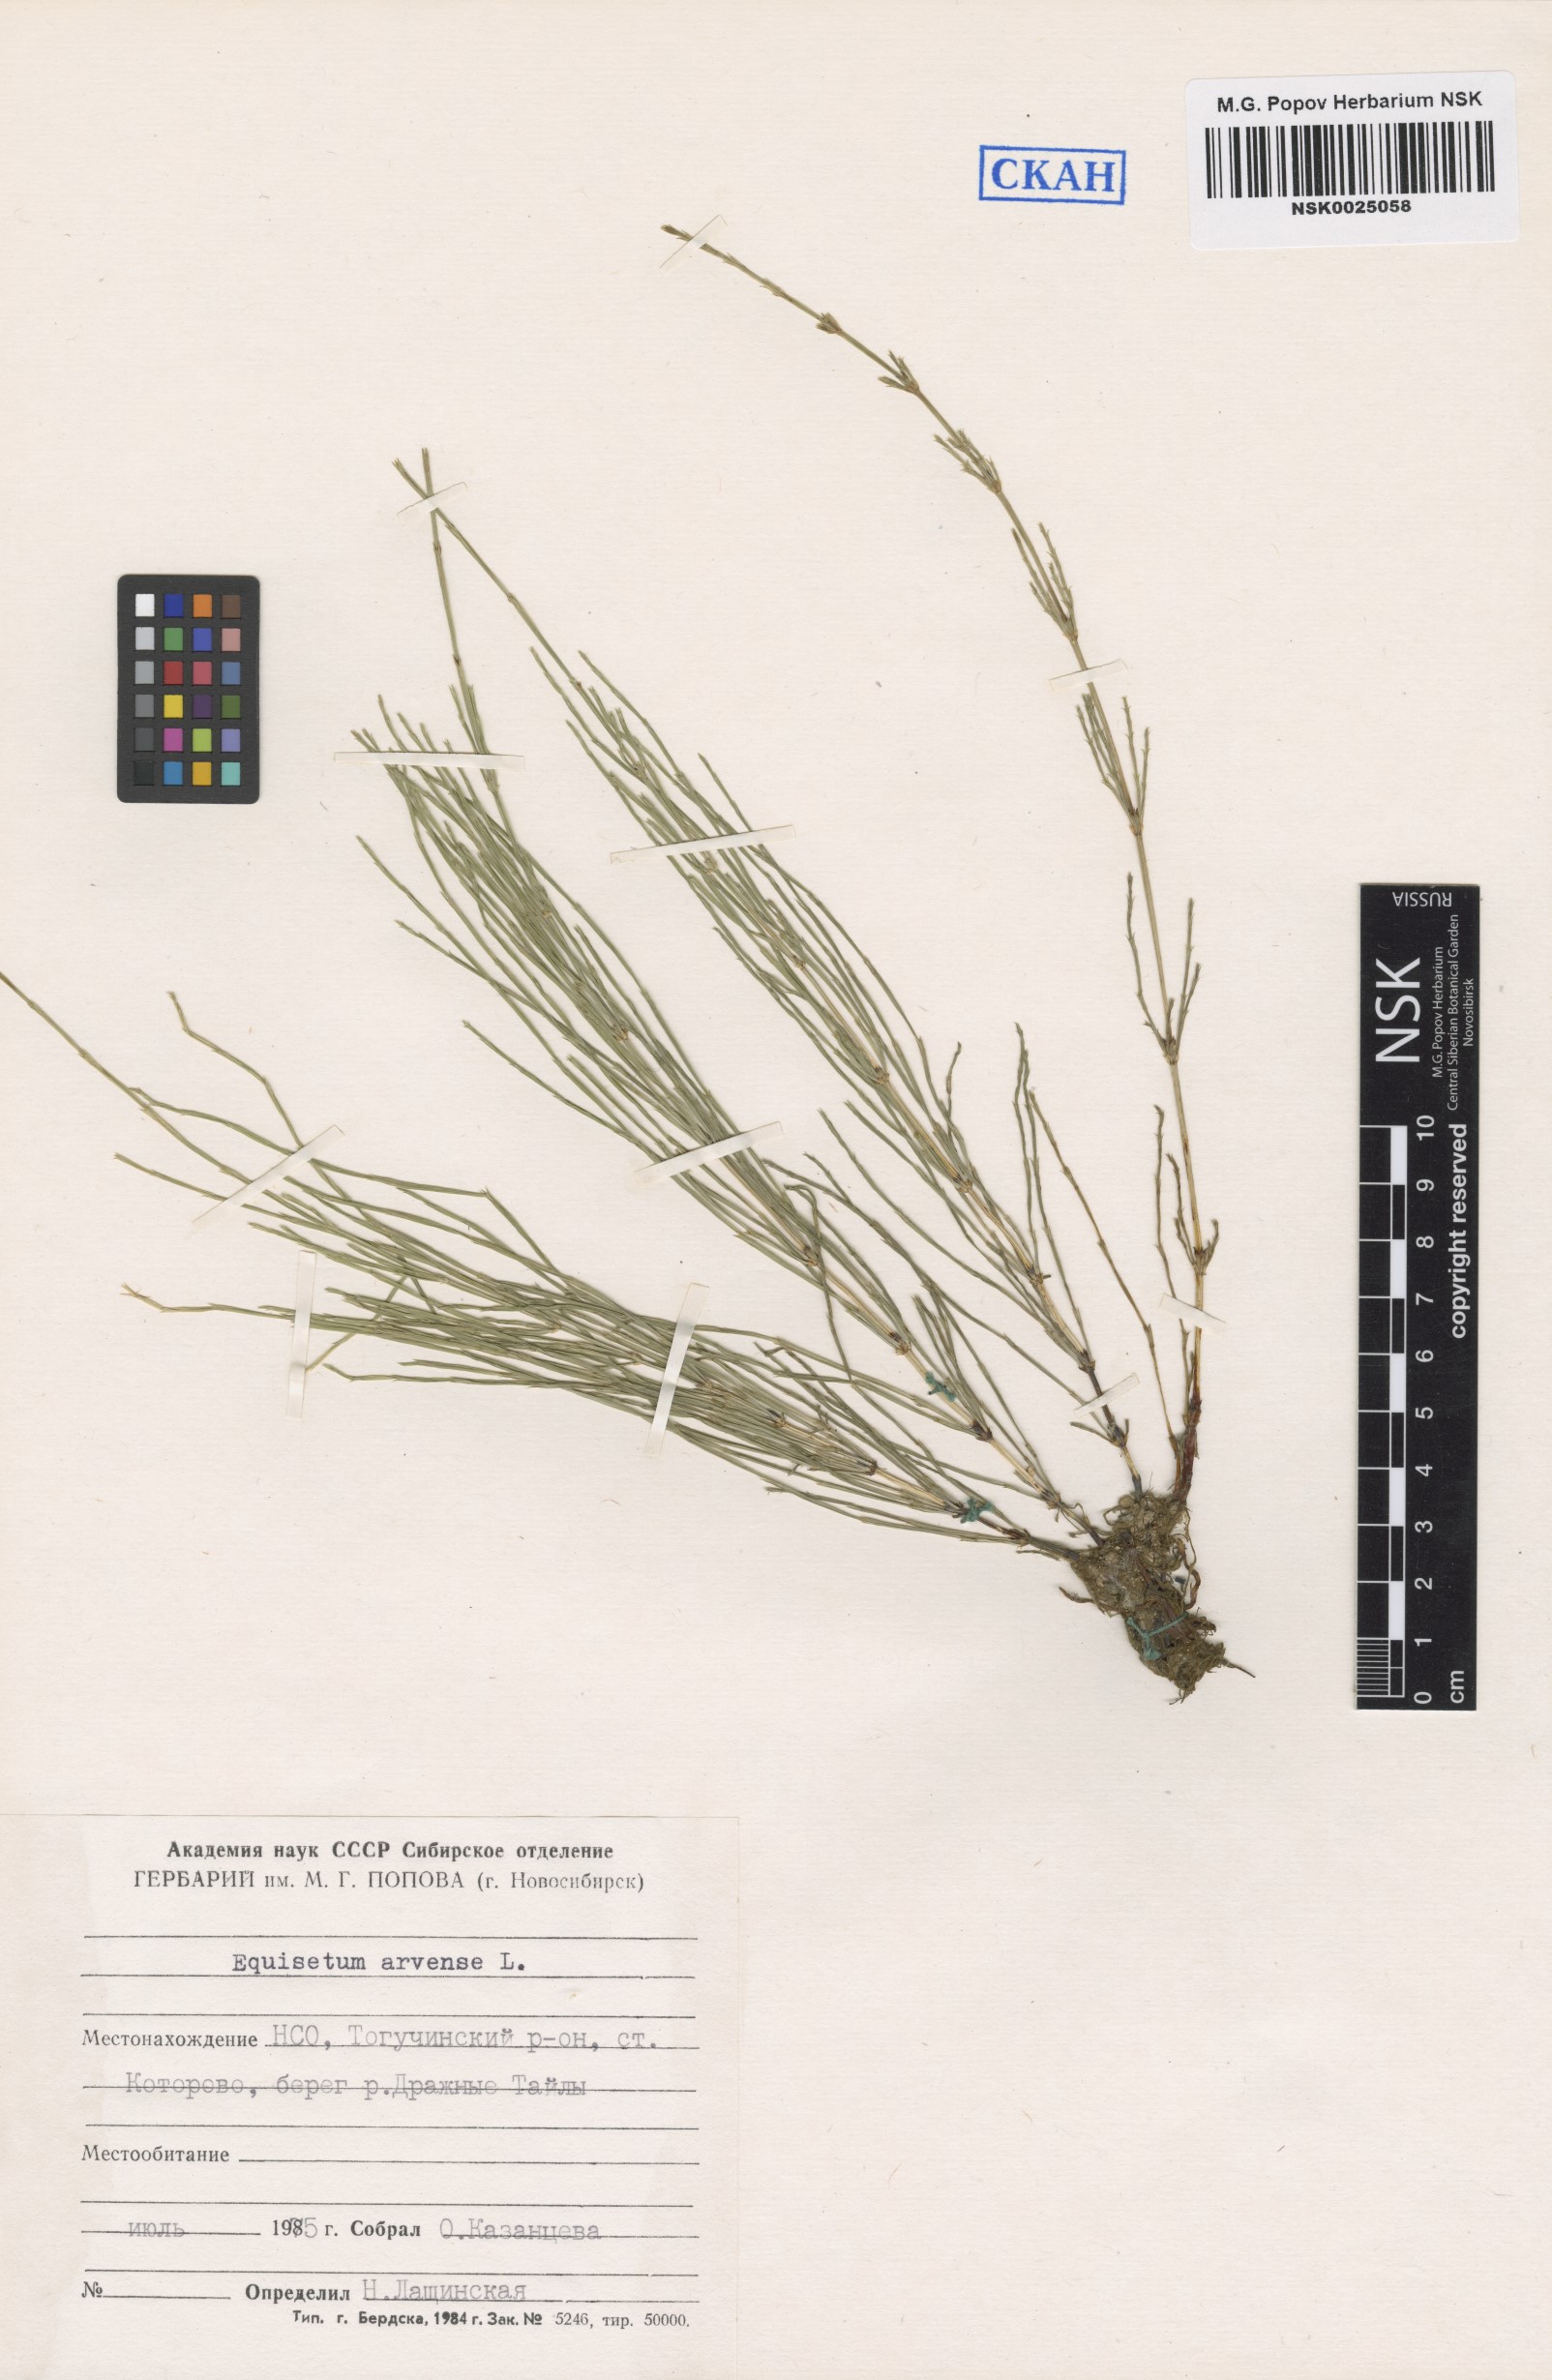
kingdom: Plantae
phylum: Tracheophyta
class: Polypodiopsida
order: Equisetales
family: Equisetaceae
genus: Equisetum
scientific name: Equisetum arvense
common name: Field horsetail
